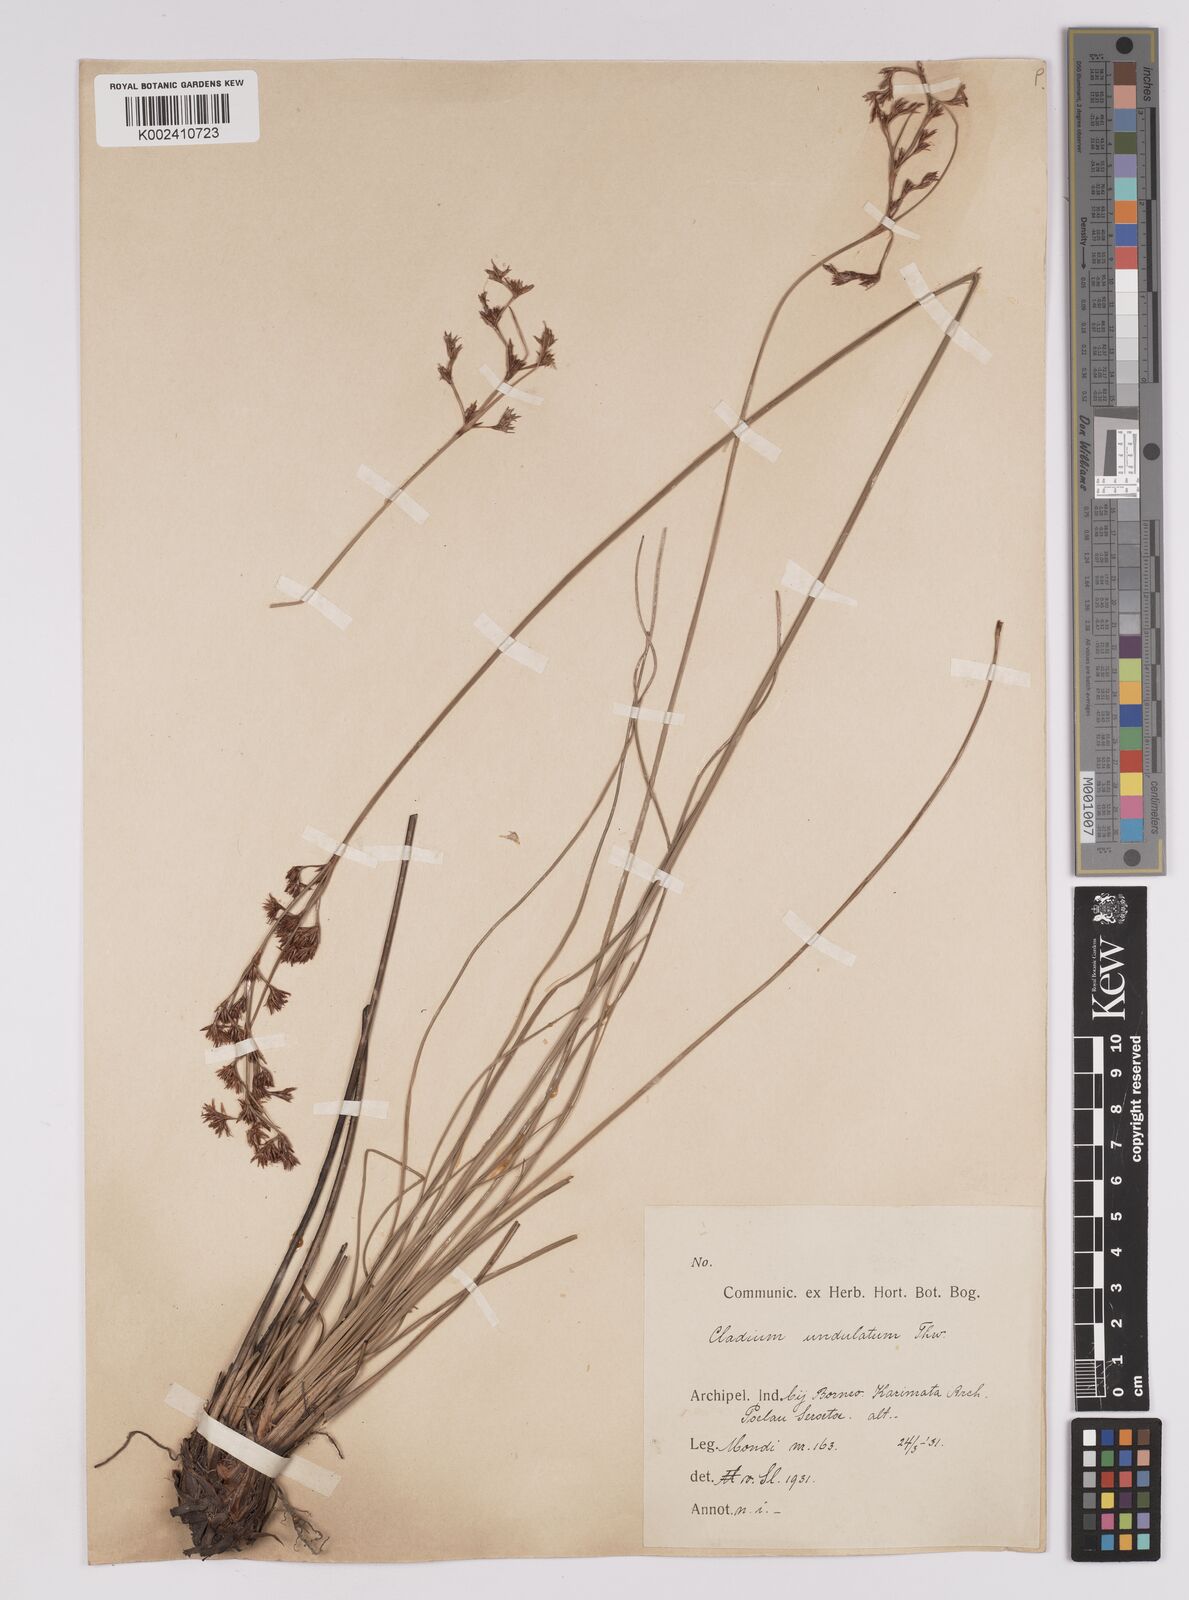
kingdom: Plantae
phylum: Tracheophyta
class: Liliopsida
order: Poales
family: Cyperaceae
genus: Anthelepis
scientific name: Anthelepis undulata
